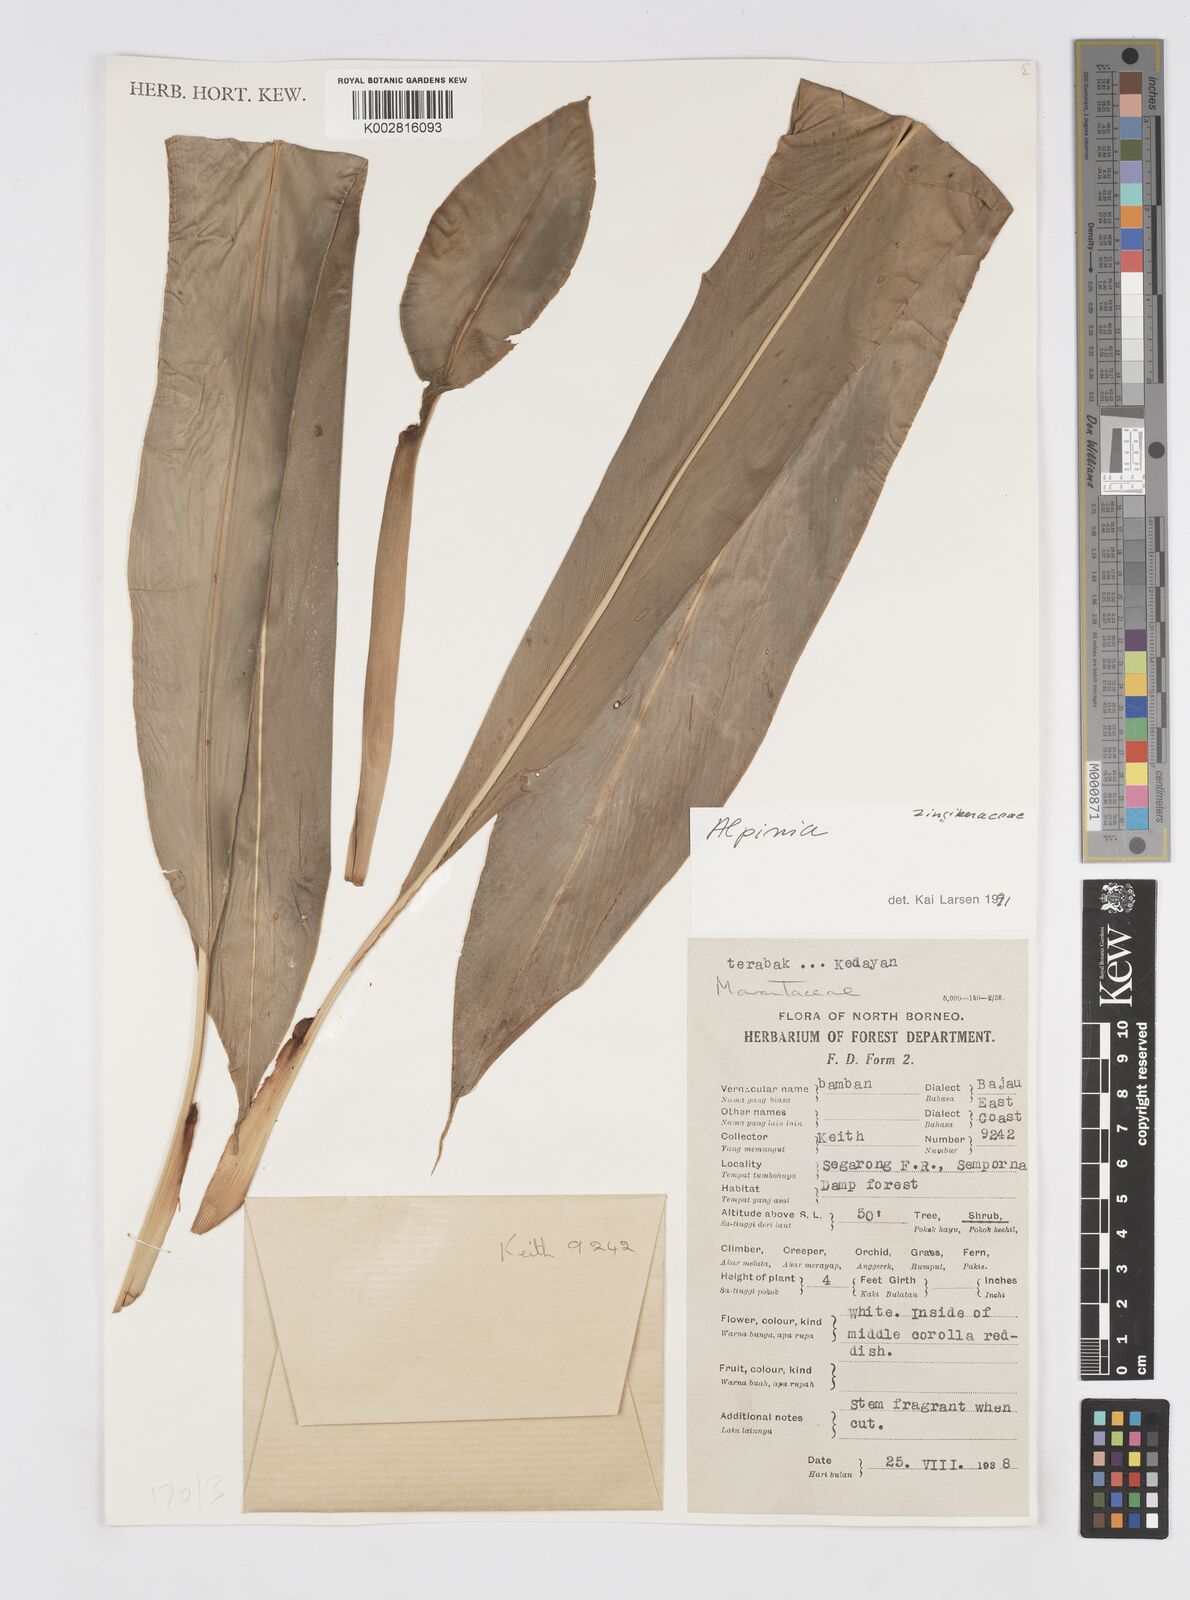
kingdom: Plantae
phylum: Tracheophyta
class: Liliopsida
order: Zingiberales
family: Zingiberaceae
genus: Alpinia
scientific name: Alpinia
